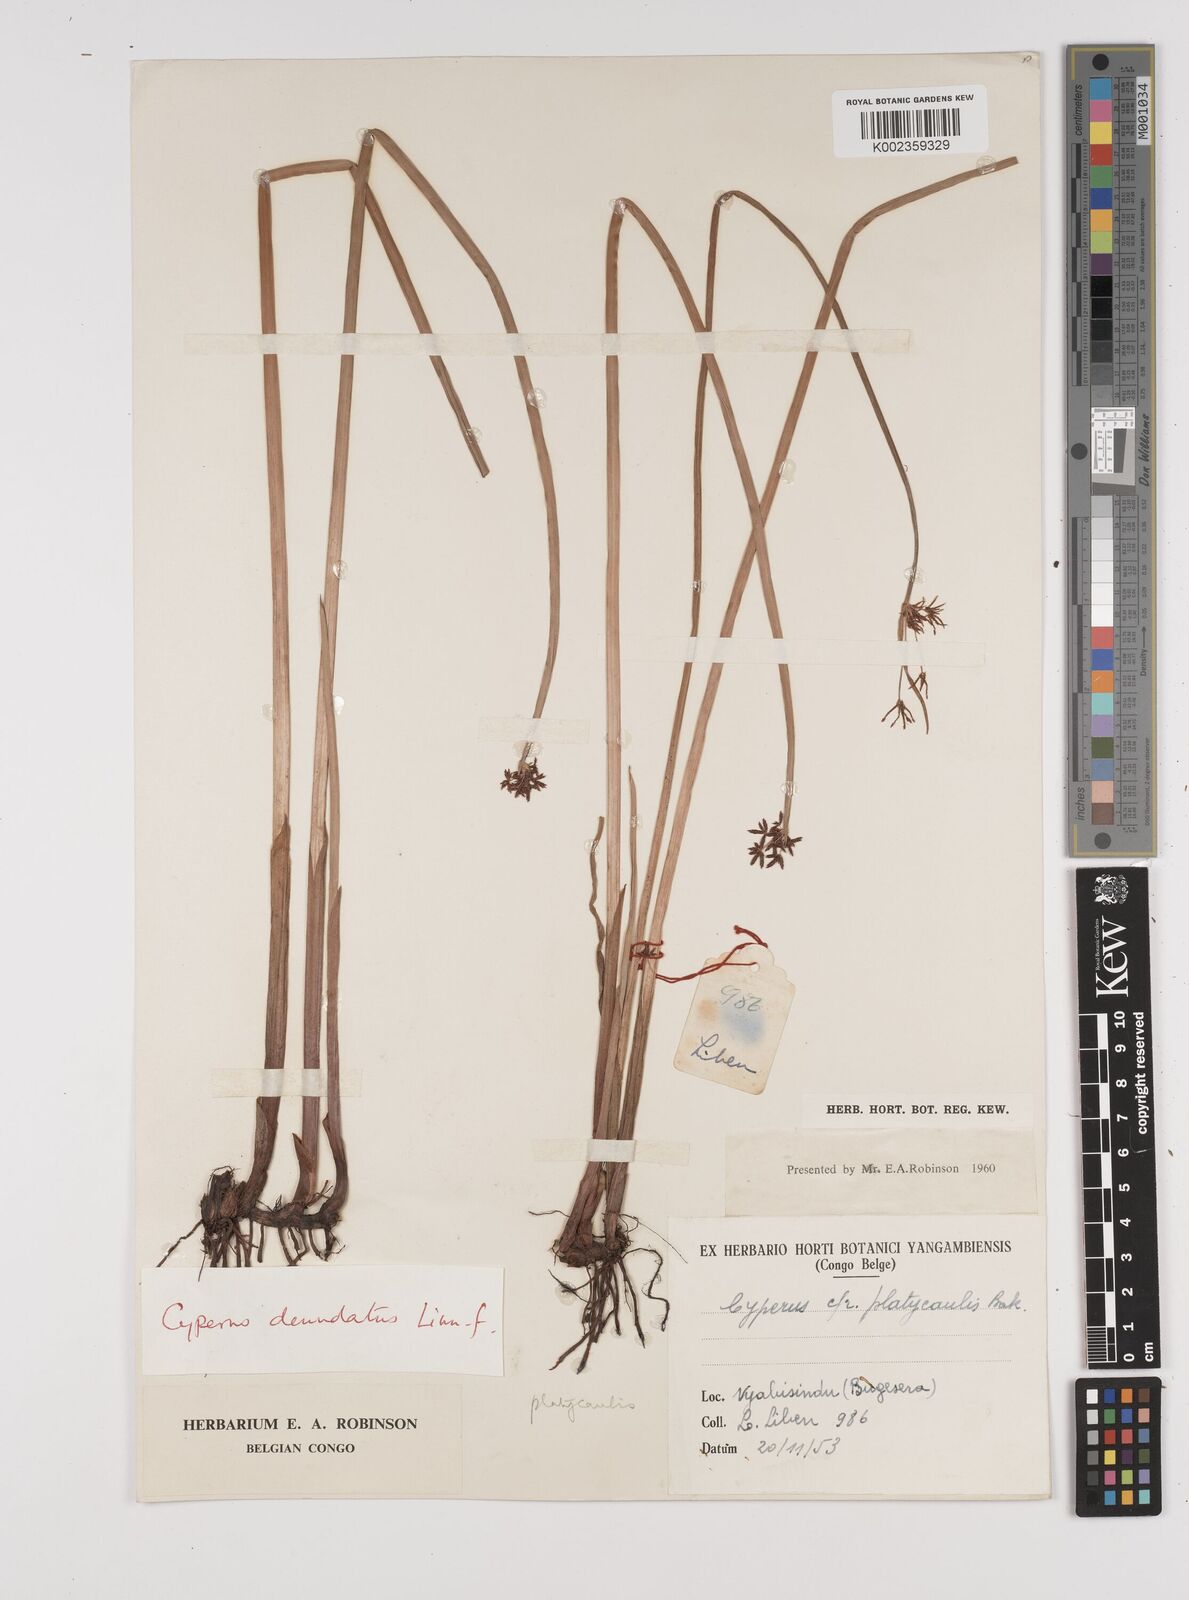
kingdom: Plantae
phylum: Tracheophyta
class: Liliopsida
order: Poales
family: Cyperaceae
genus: Cyperus
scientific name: Cyperus platycaulis
